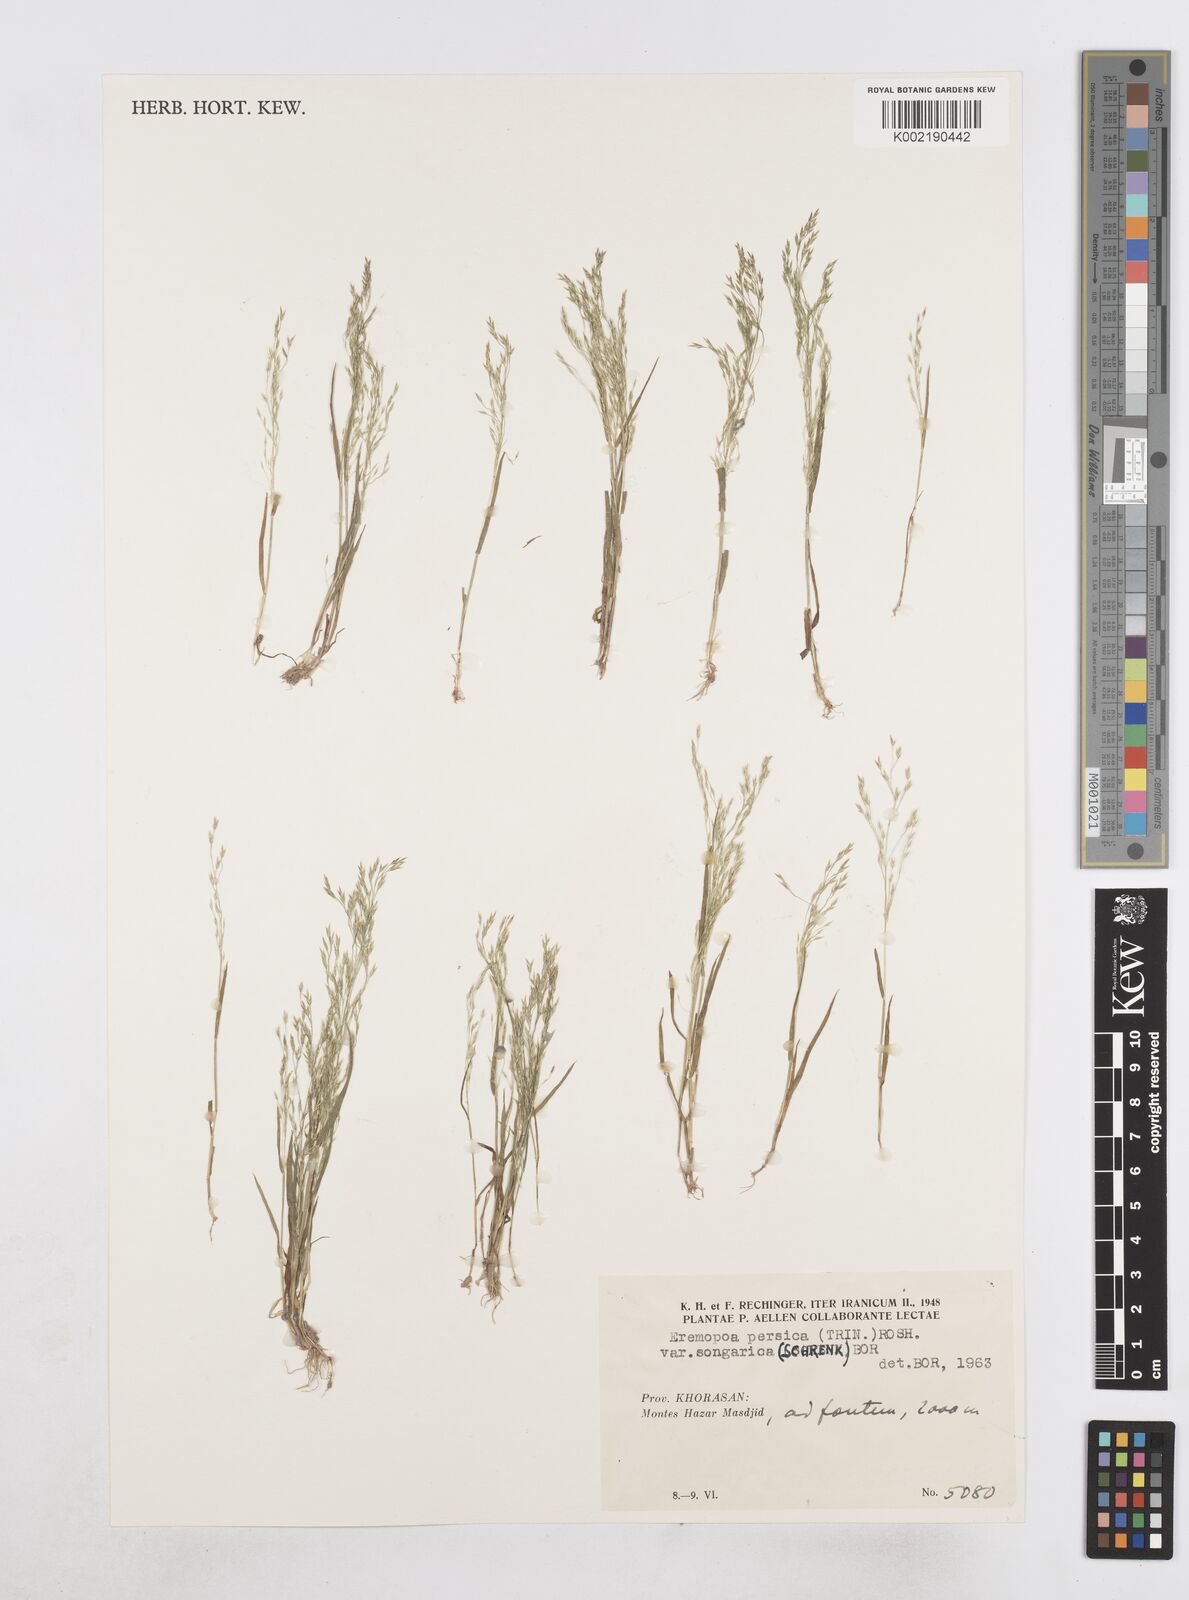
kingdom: Plantae
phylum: Tracheophyta
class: Liliopsida
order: Poales
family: Poaceae
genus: Poa
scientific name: Poa diaphora
